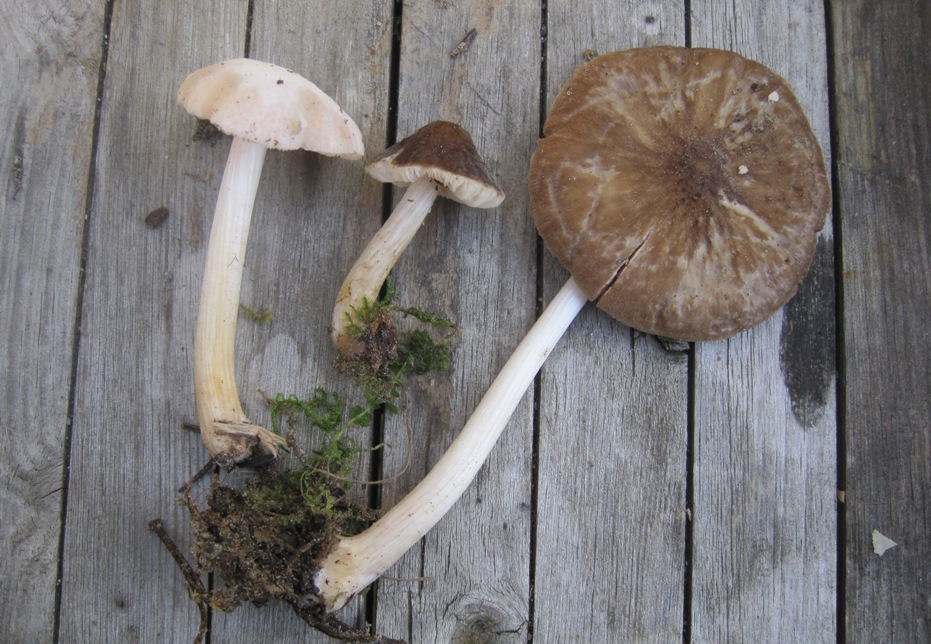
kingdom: Fungi
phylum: Basidiomycota
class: Agaricomycetes
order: Agaricales
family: Pluteaceae
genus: Pluteus
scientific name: Pluteus roseipes
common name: rosafodet skærmhat
